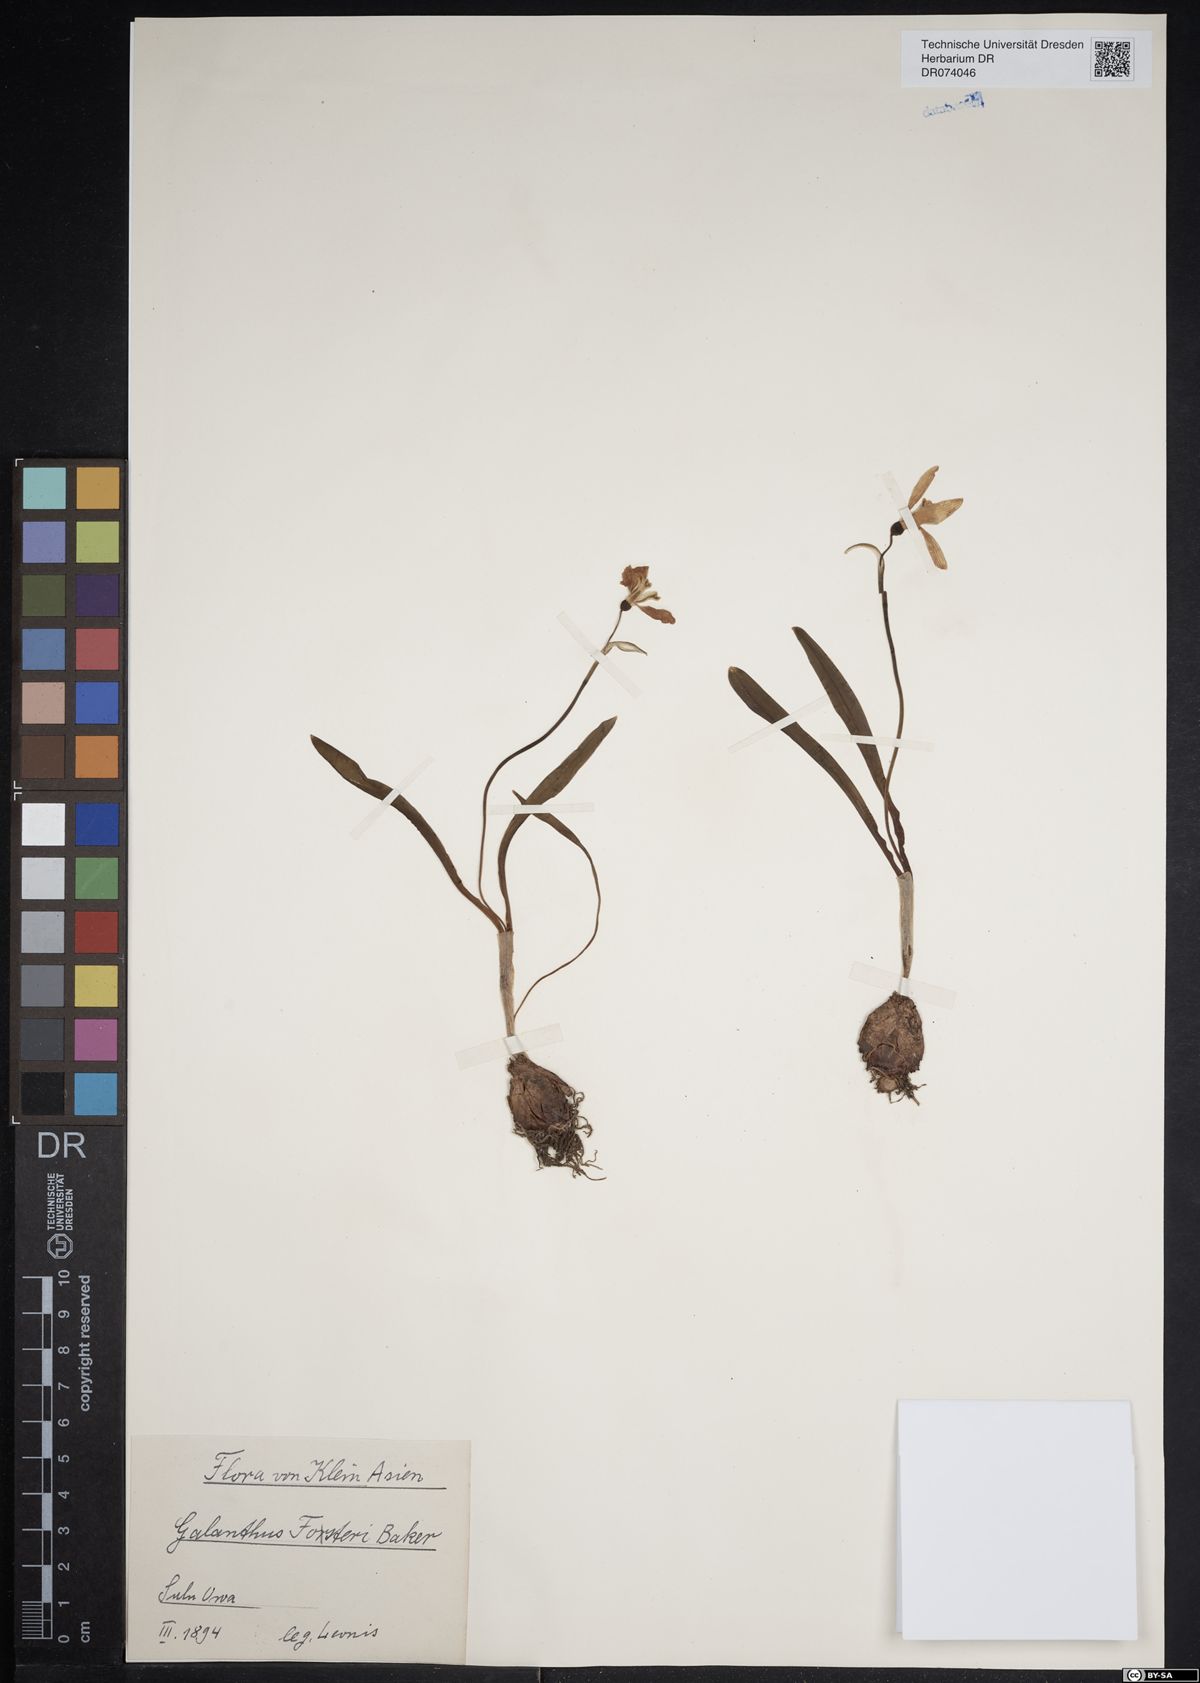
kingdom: Plantae
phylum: Tracheophyta
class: Liliopsida
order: Asparagales
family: Amaryllidaceae
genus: Galanthus
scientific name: Galanthus fosteri
